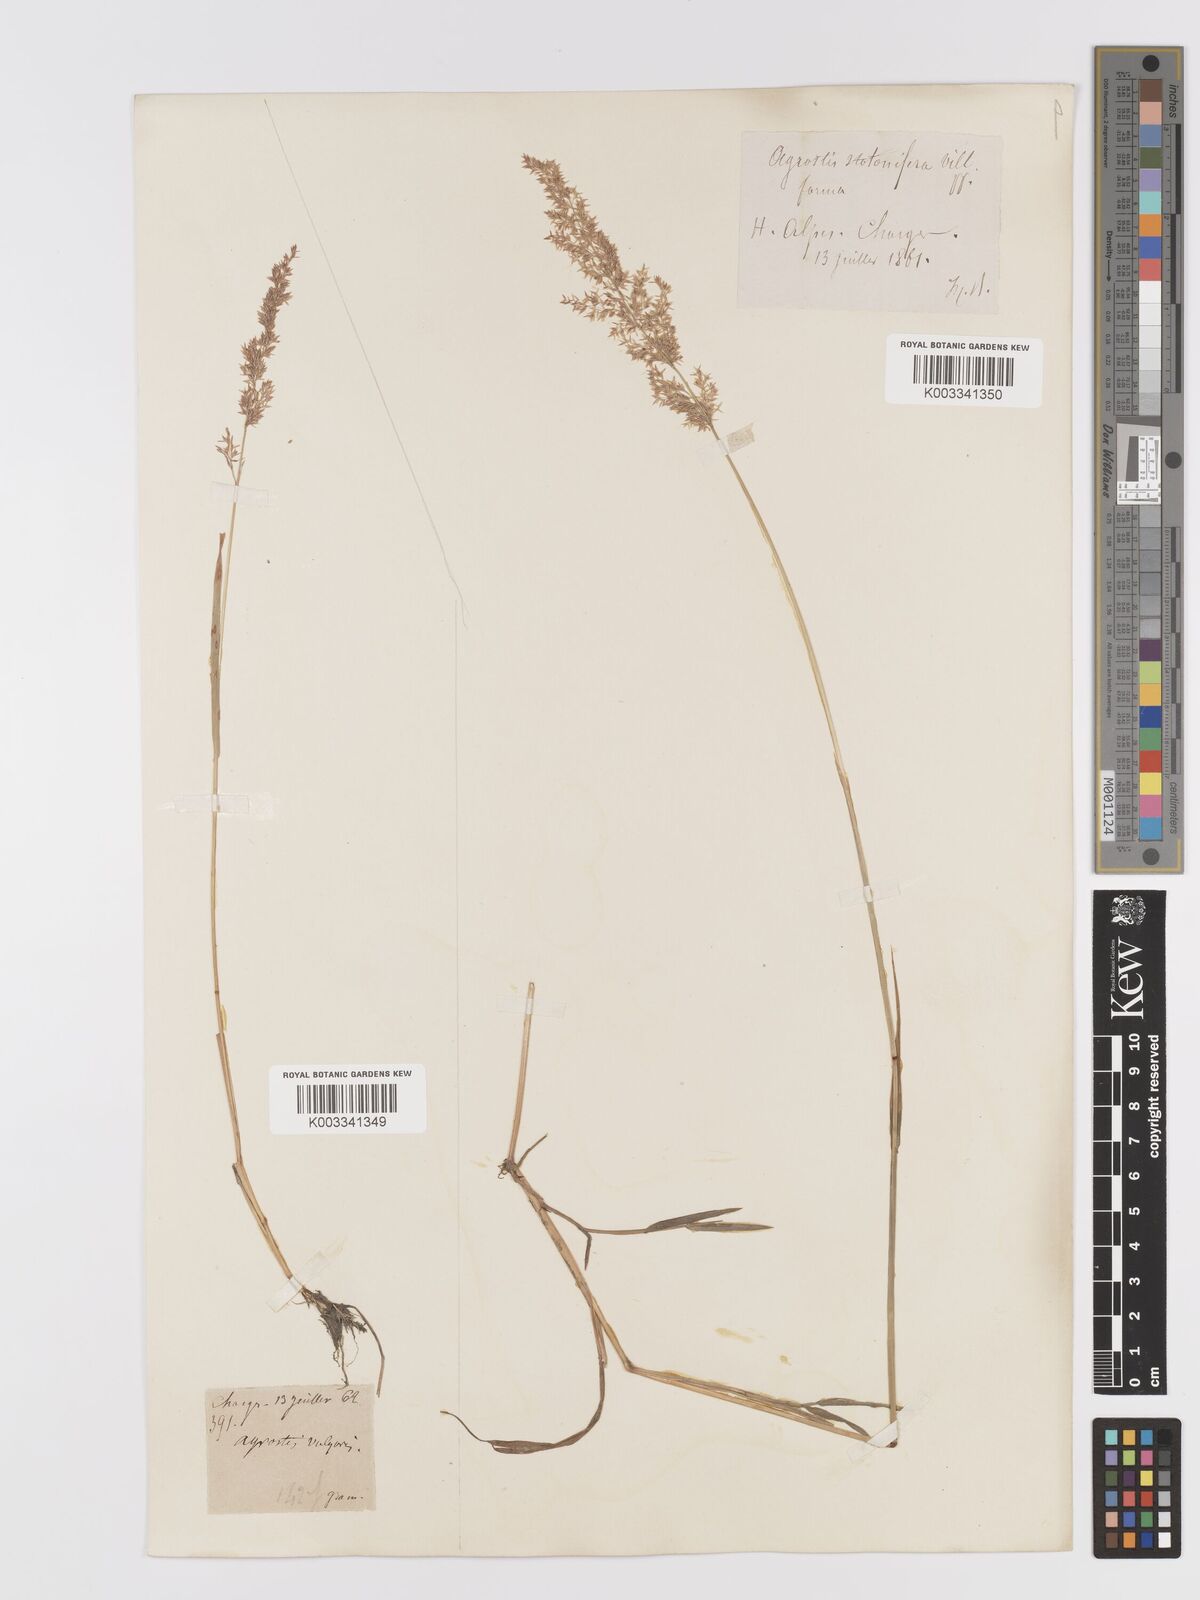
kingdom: Plantae
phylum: Tracheophyta
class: Liliopsida
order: Poales
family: Poaceae
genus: Agrostis
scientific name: Agrostis gigantea
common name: Black bent
